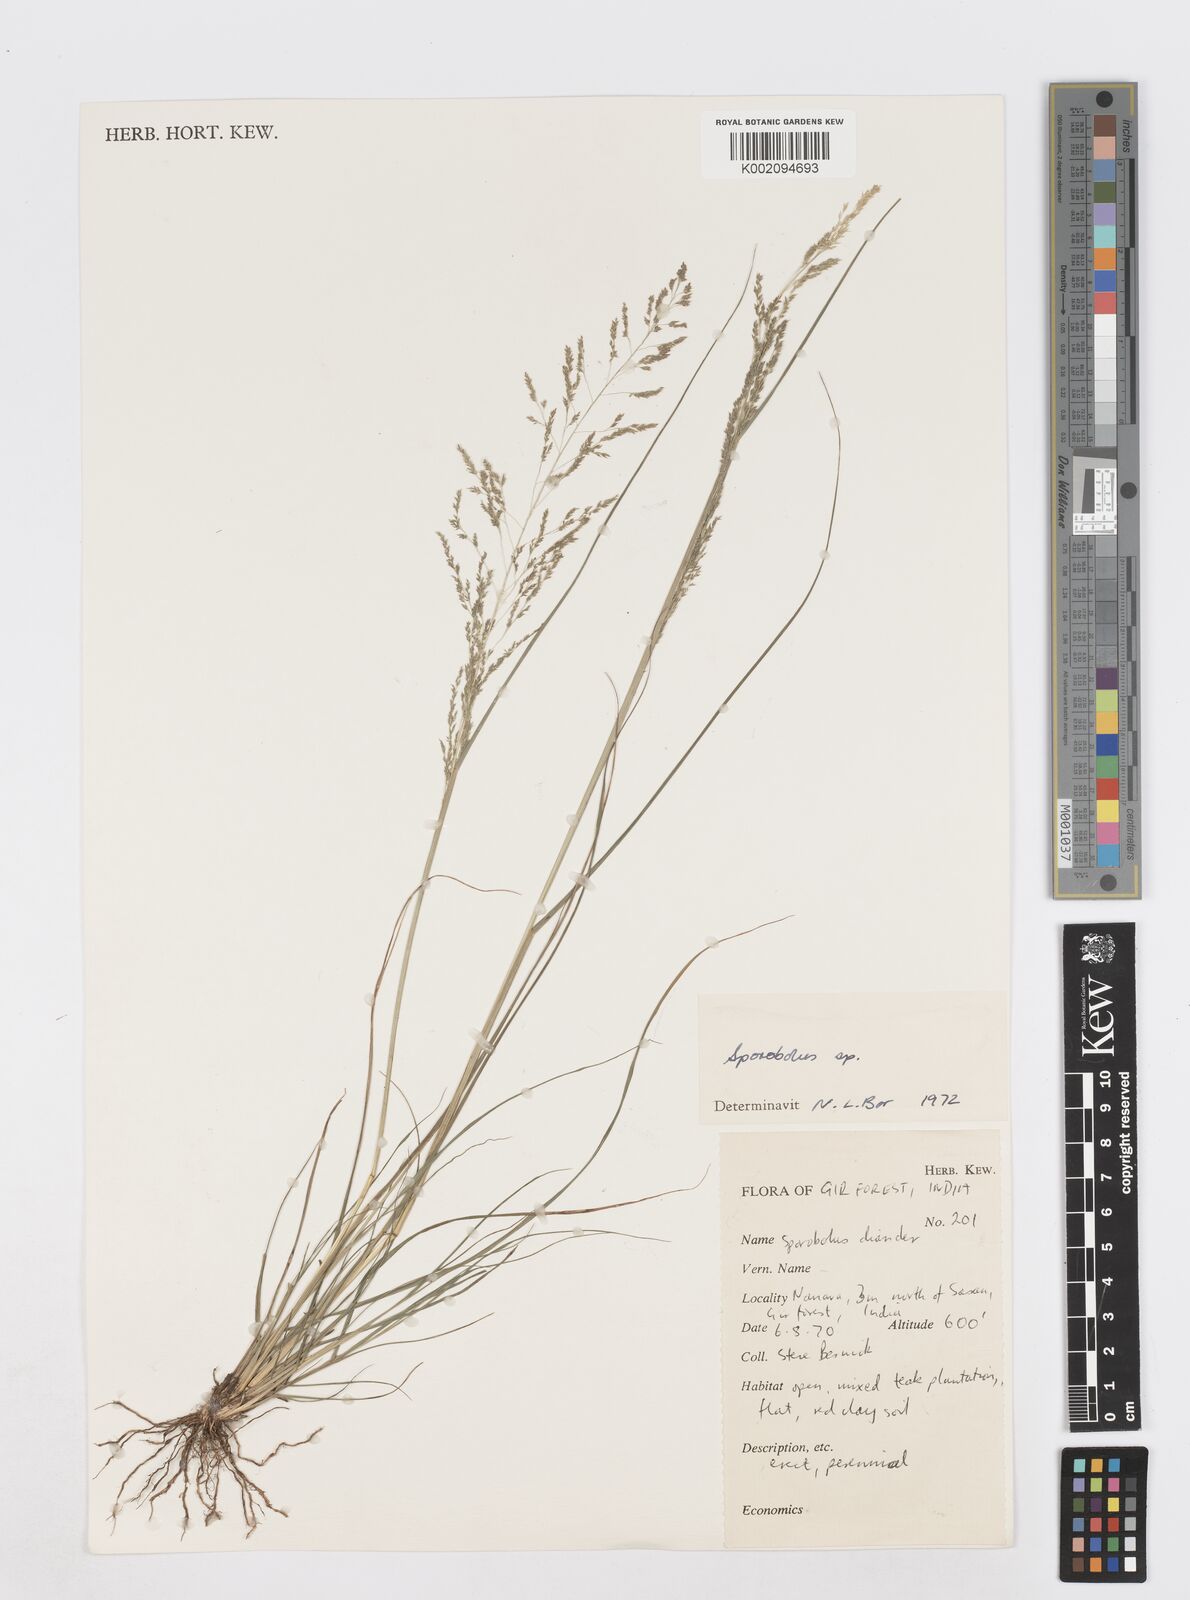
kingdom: Plantae
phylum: Tracheophyta
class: Liliopsida
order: Poales
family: Poaceae
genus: Sporobolus
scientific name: Sporobolus
